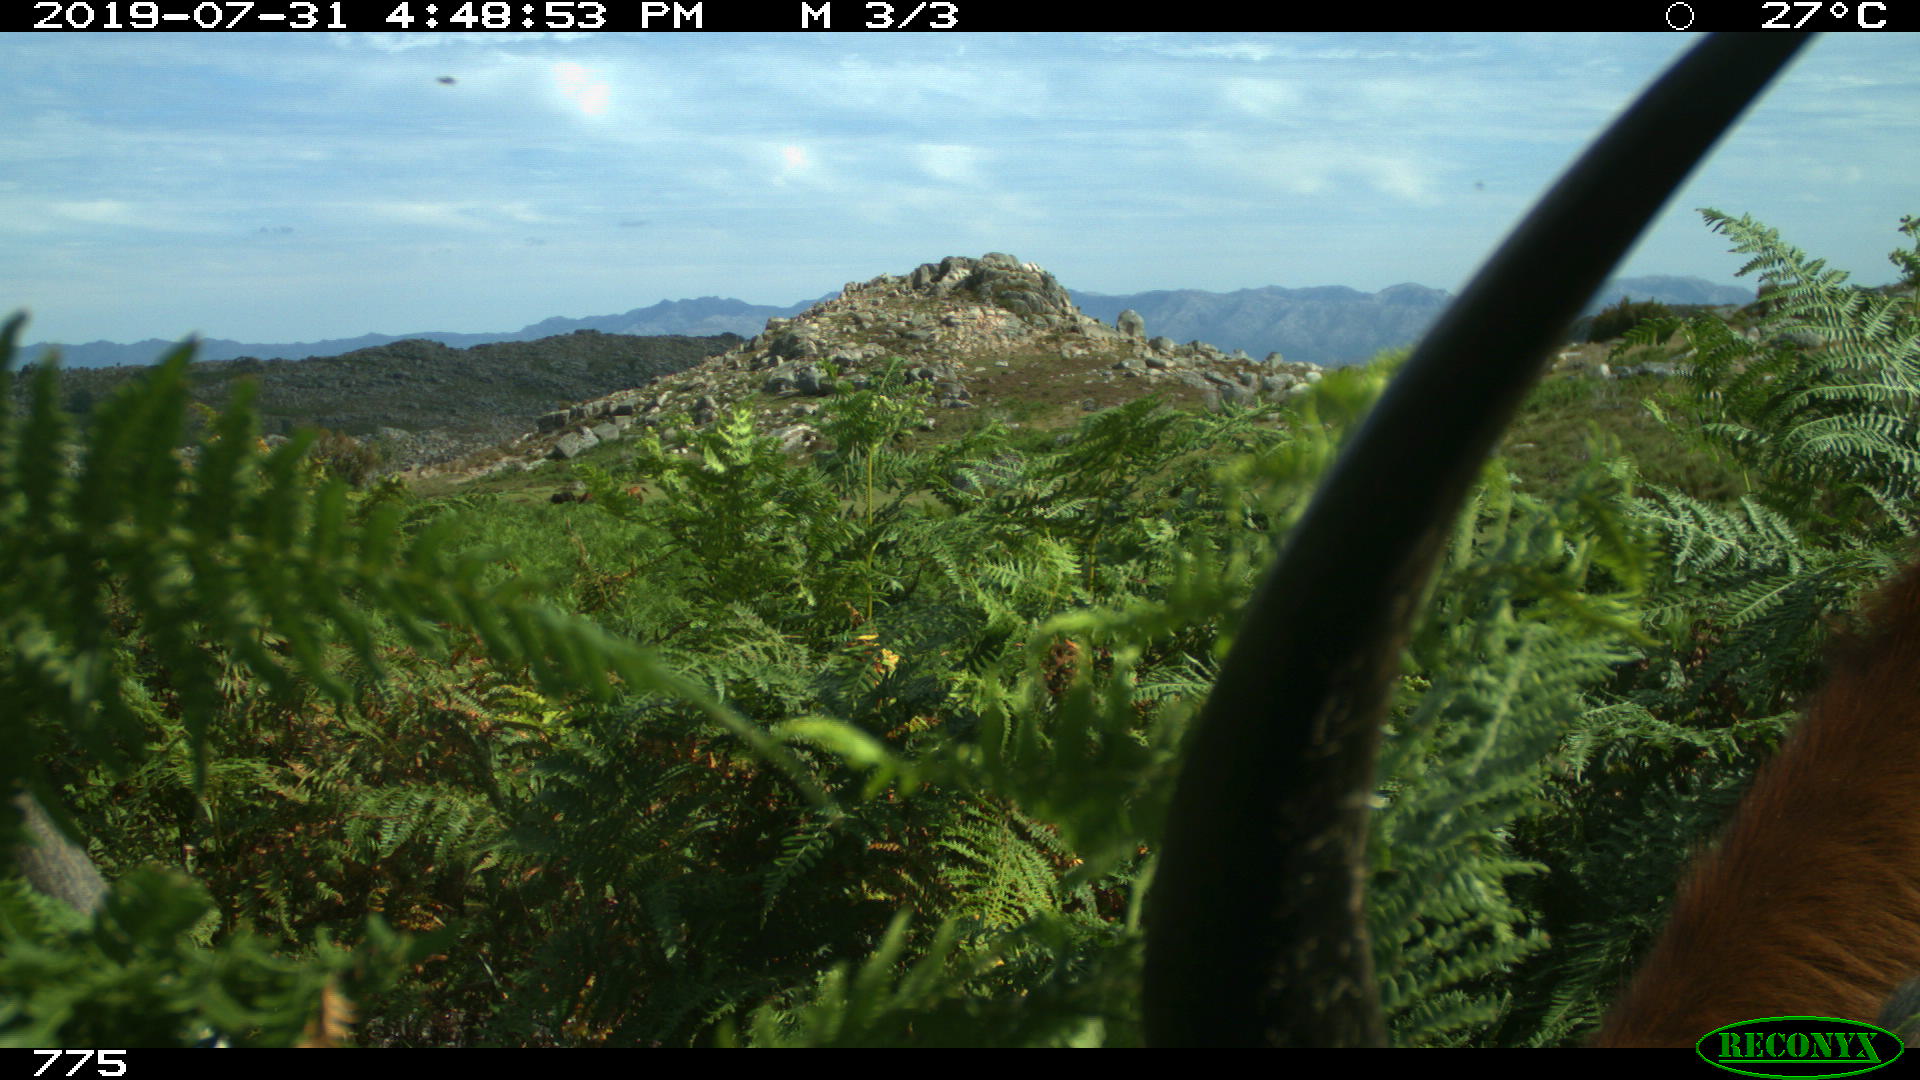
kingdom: Animalia
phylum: Chordata
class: Mammalia
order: Artiodactyla
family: Bovidae
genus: Bos
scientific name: Bos taurus
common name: Domesticated cattle
